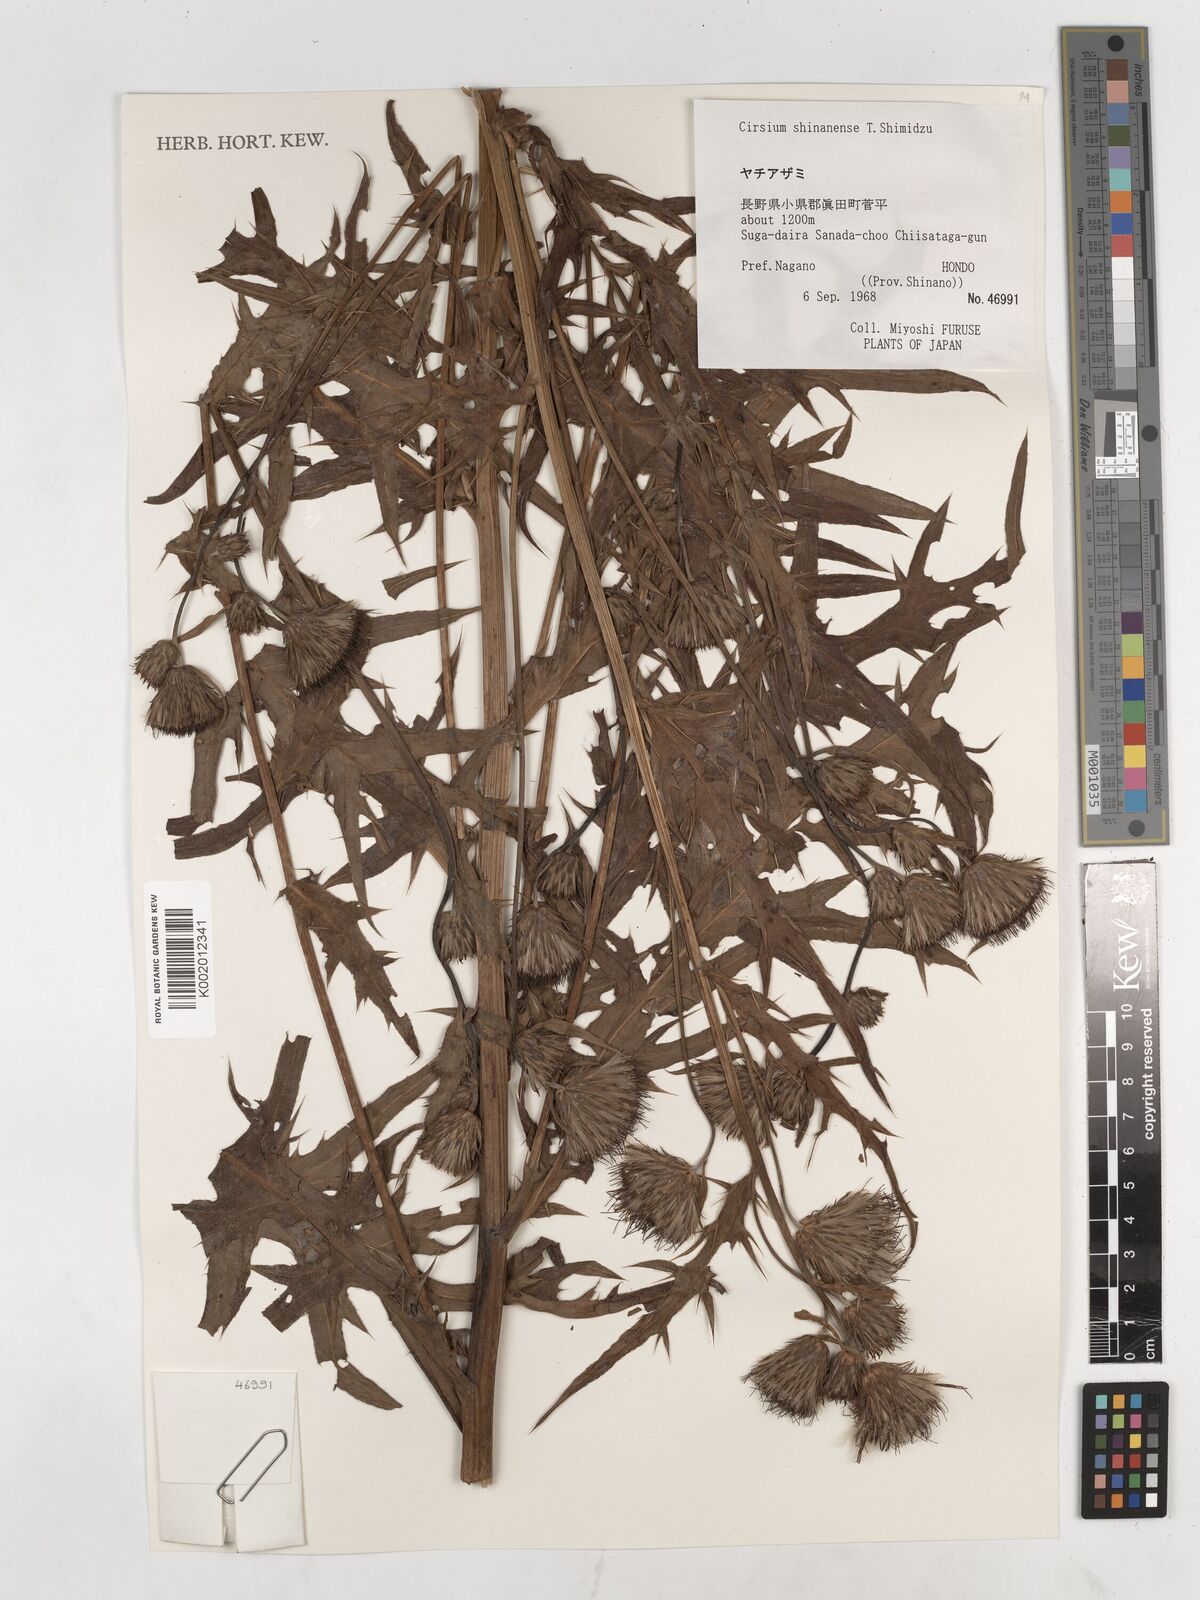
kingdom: Plantae
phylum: Tracheophyta
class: Magnoliopsida
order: Asterales
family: Asteraceae
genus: Cirsium
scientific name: Cirsium shinanense
